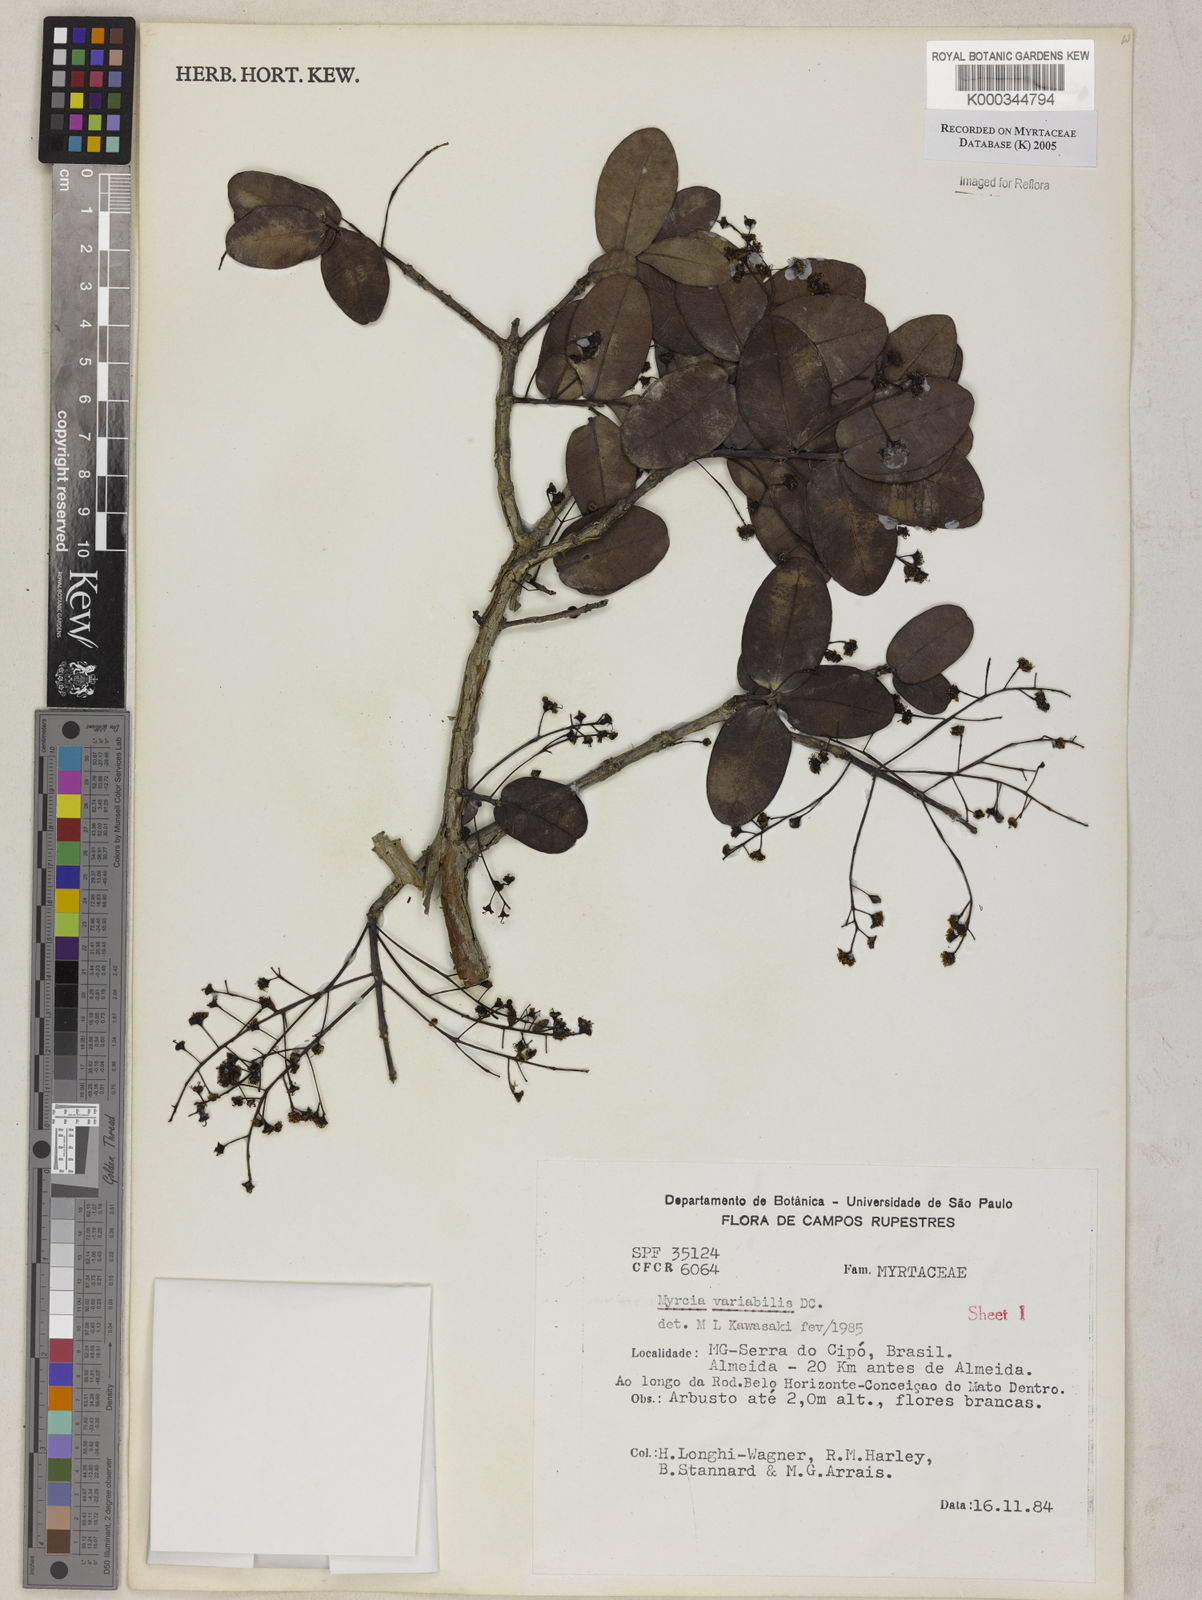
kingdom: Plantae
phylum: Tracheophyta
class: Magnoliopsida
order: Myrtales
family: Myrtaceae
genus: Myrcia
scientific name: Myrcia variabilis
